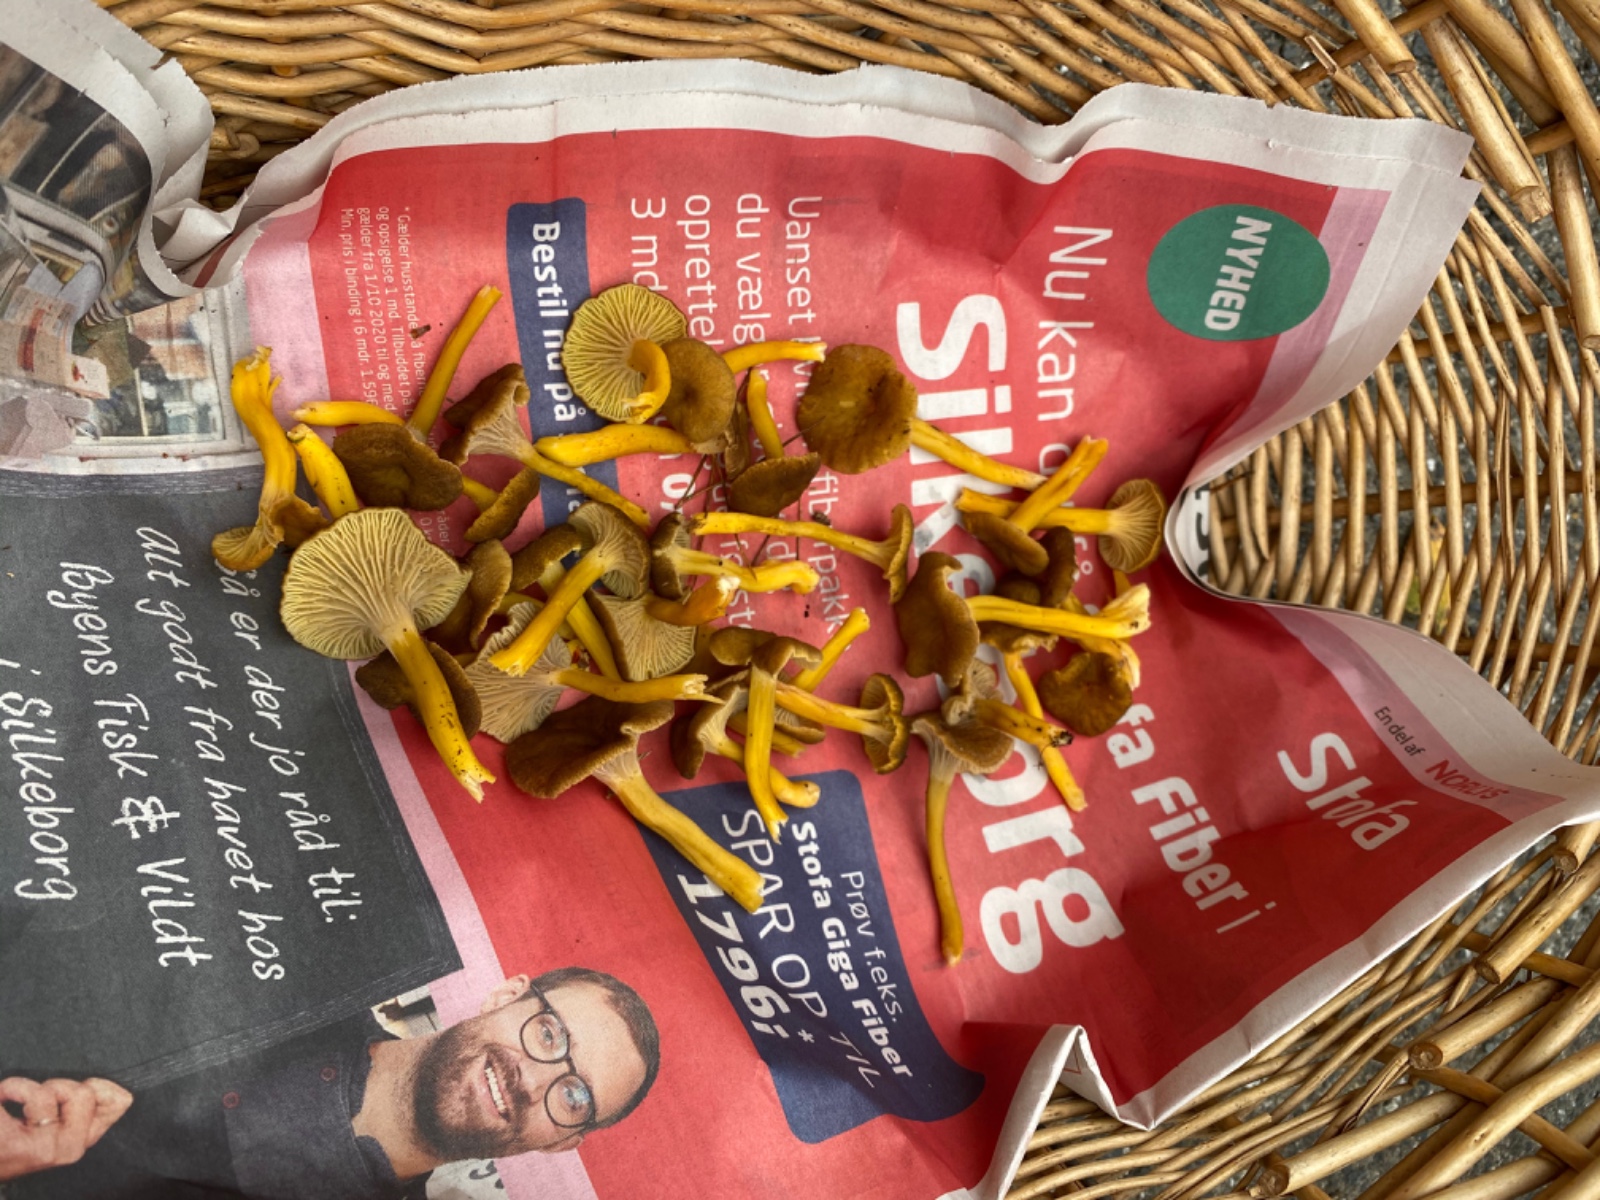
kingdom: Fungi
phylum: Basidiomycota
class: Agaricomycetes
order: Cantharellales
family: Hydnaceae
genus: Craterellus
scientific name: Craterellus tubaeformis
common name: tragt-kantarel
